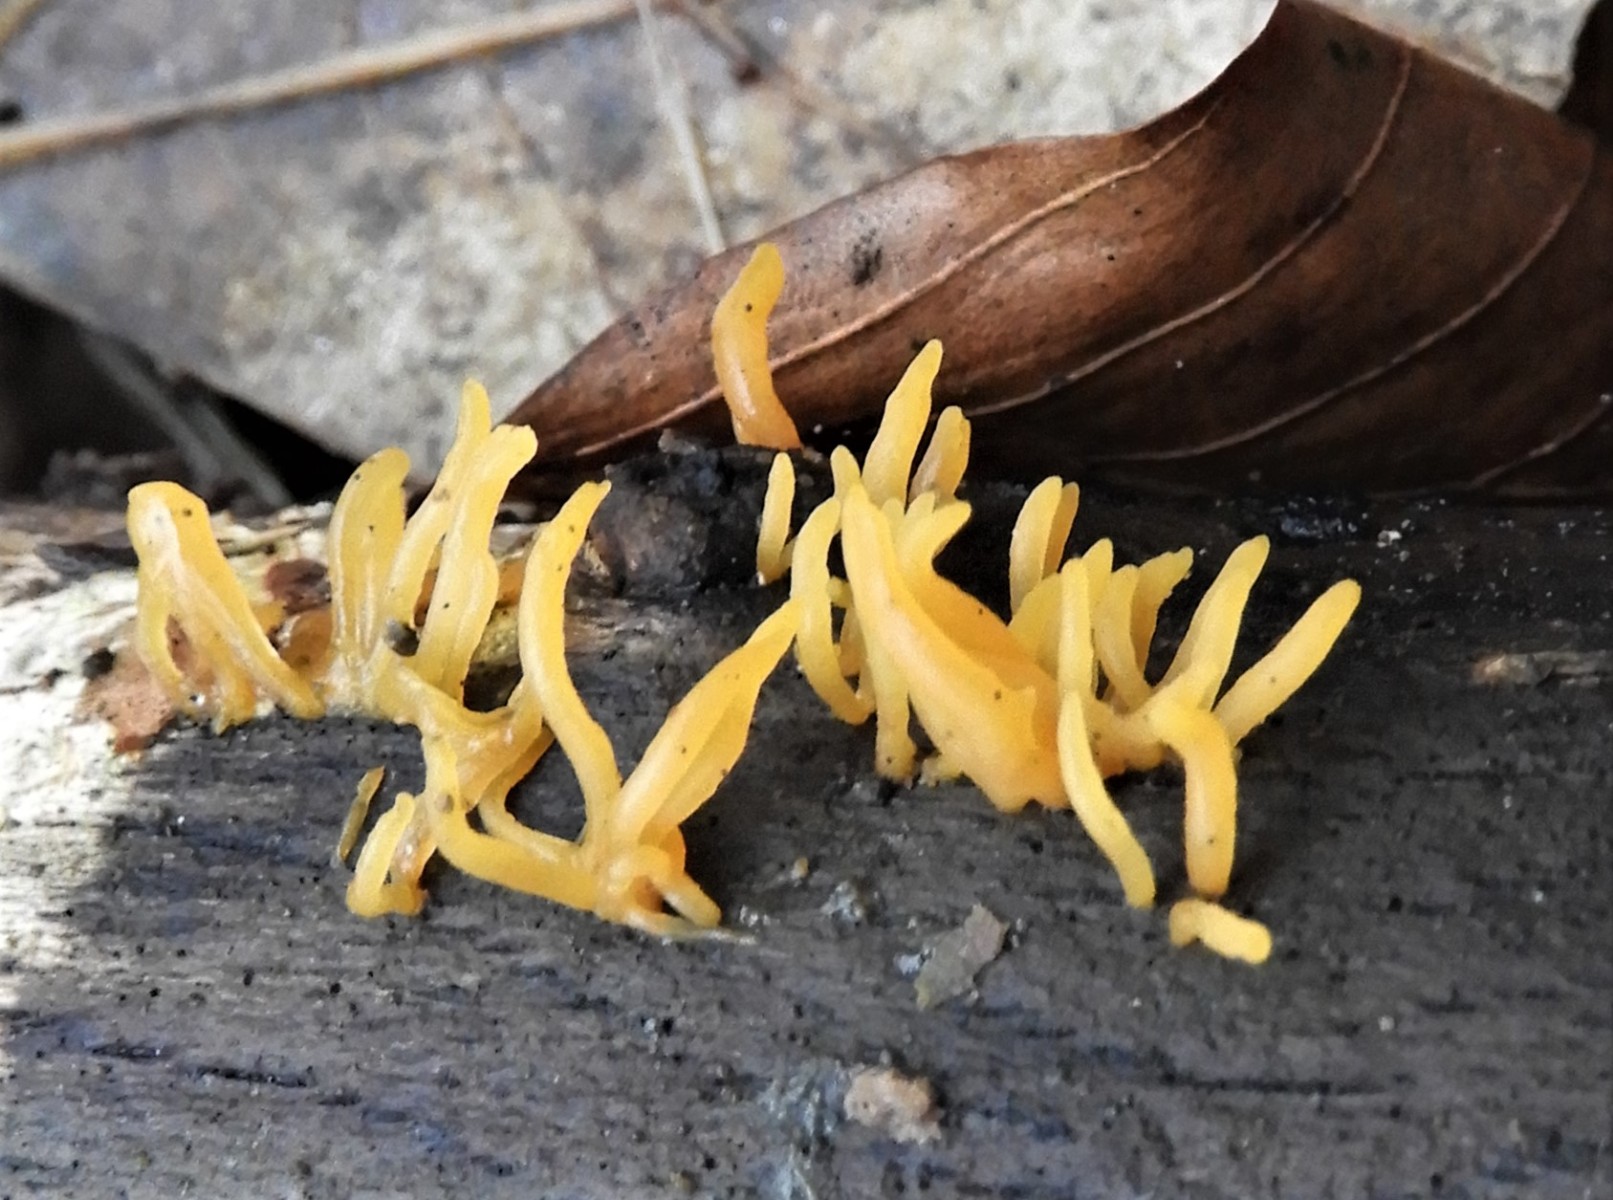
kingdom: Fungi
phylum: Basidiomycota
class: Dacrymycetes
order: Dacrymycetales
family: Dacrymycetaceae
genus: Calocera
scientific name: Calocera cornea
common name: liden guldgaffel
